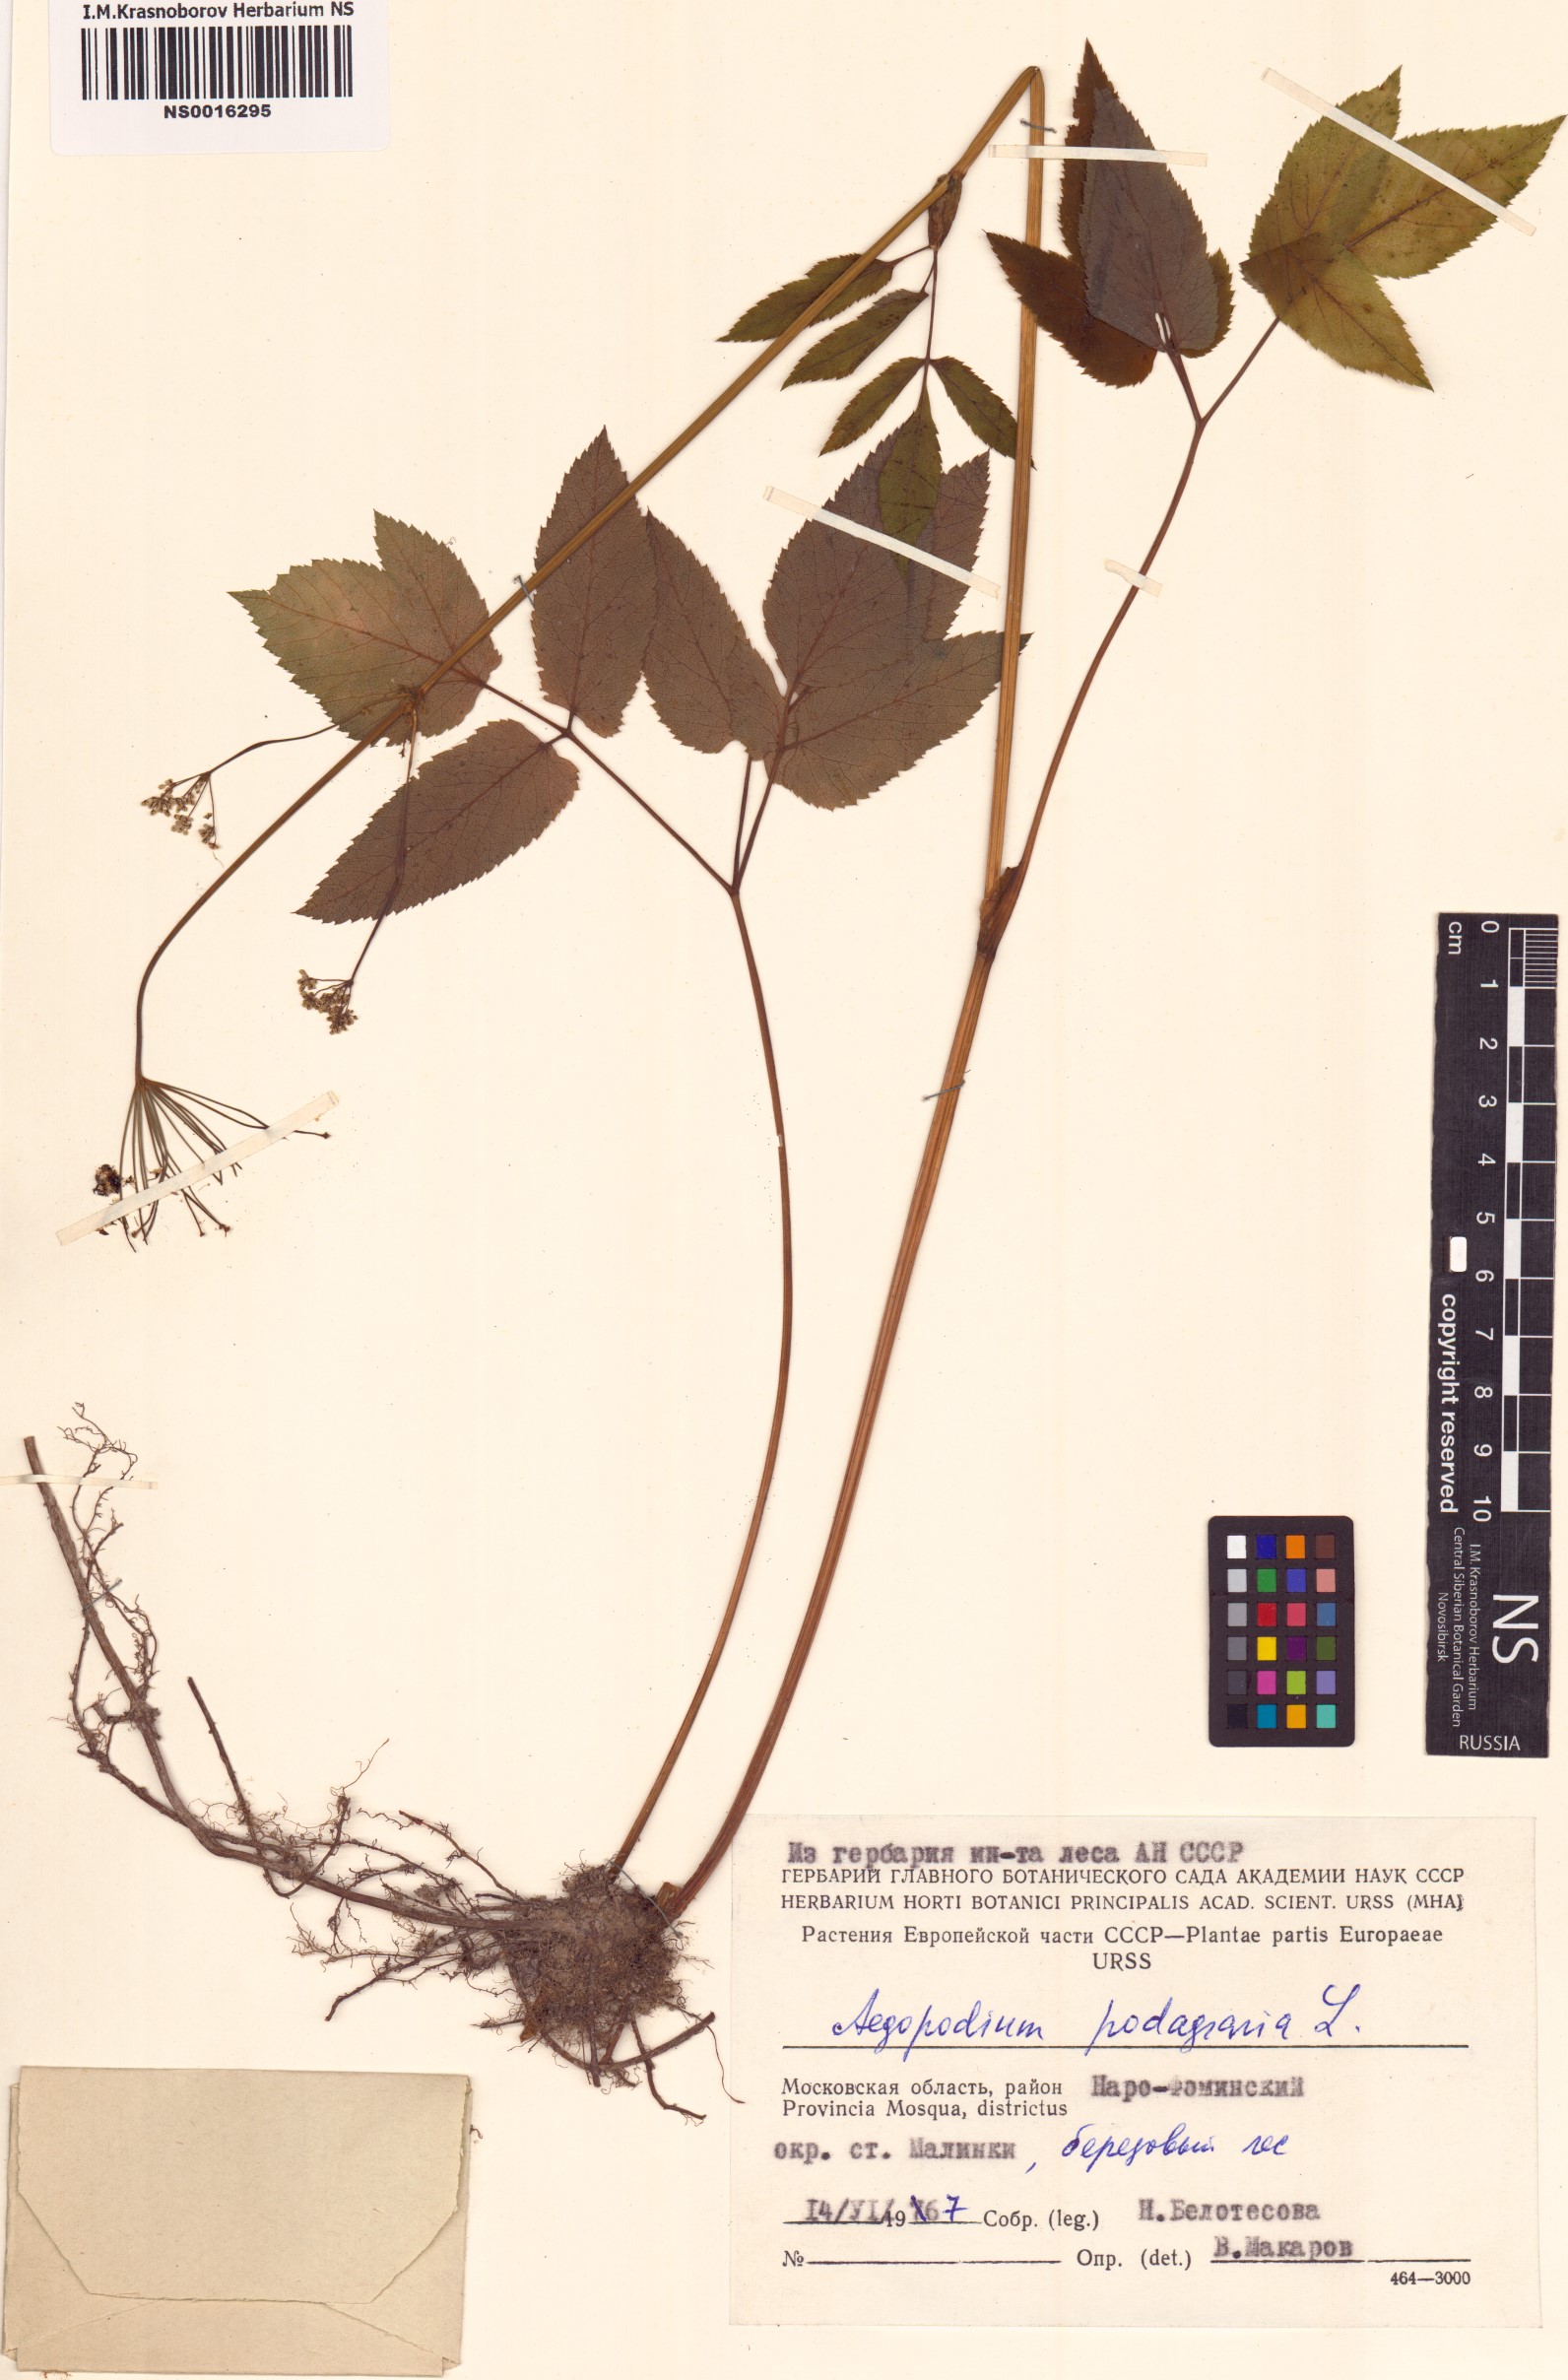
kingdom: Plantae
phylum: Tracheophyta
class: Magnoliopsida
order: Apiales
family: Apiaceae
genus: Aegopodium
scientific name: Aegopodium podagraria
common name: Ground-elder
